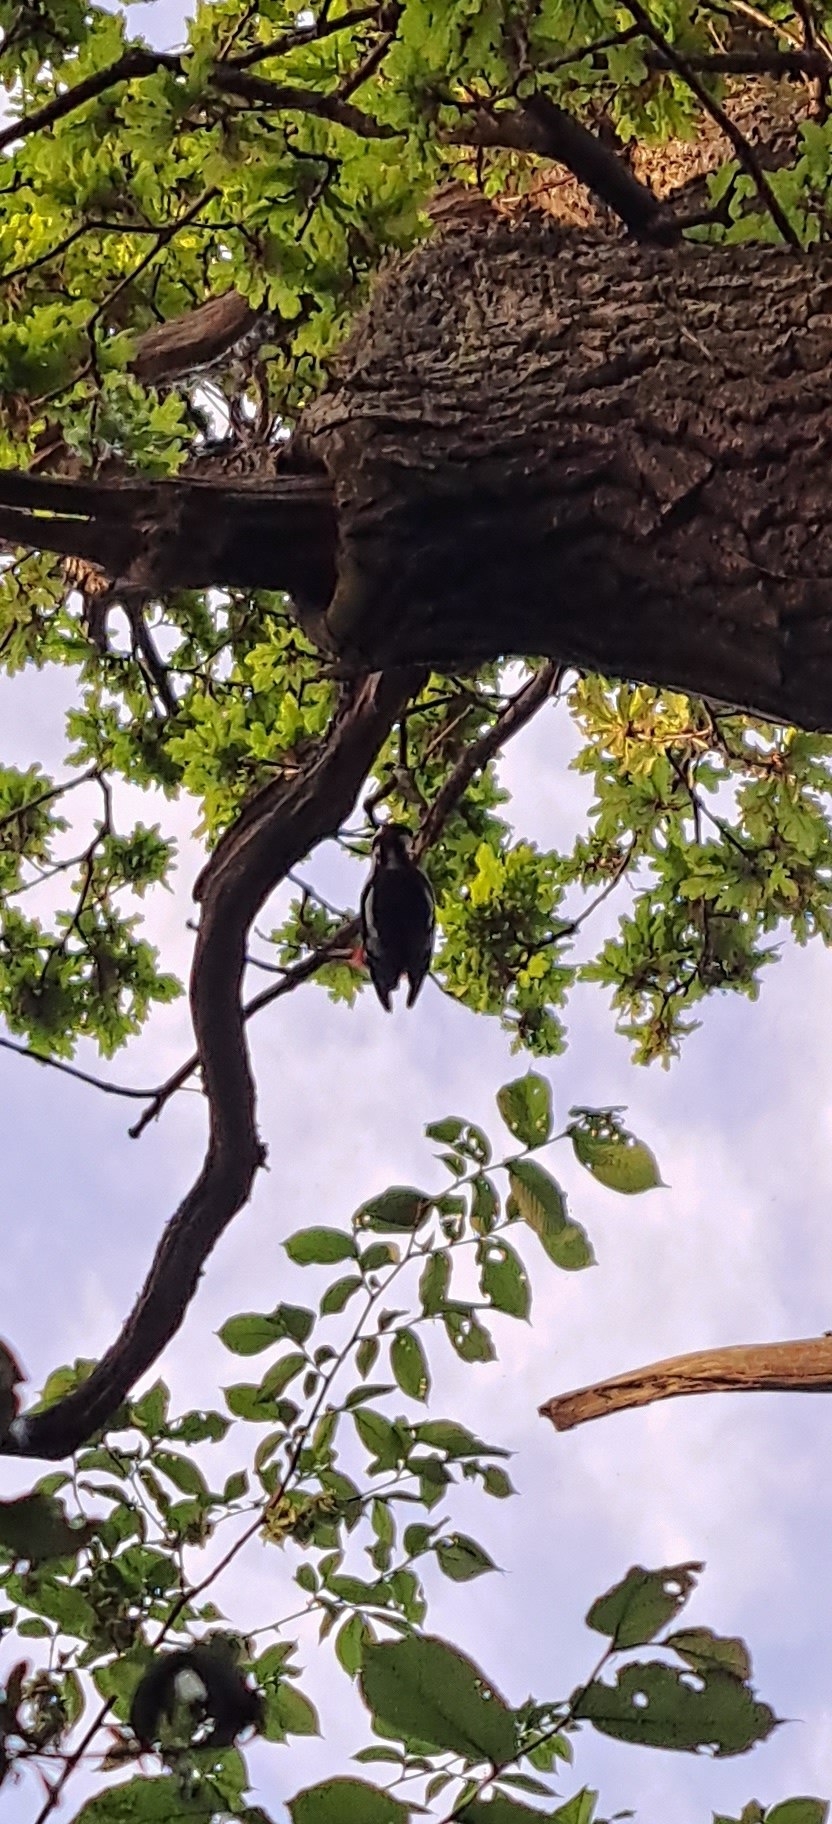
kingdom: Animalia
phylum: Chordata
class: Aves
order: Piciformes
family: Picidae
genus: Dendrocopos
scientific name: Dendrocopos major
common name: Stor flagspætte
